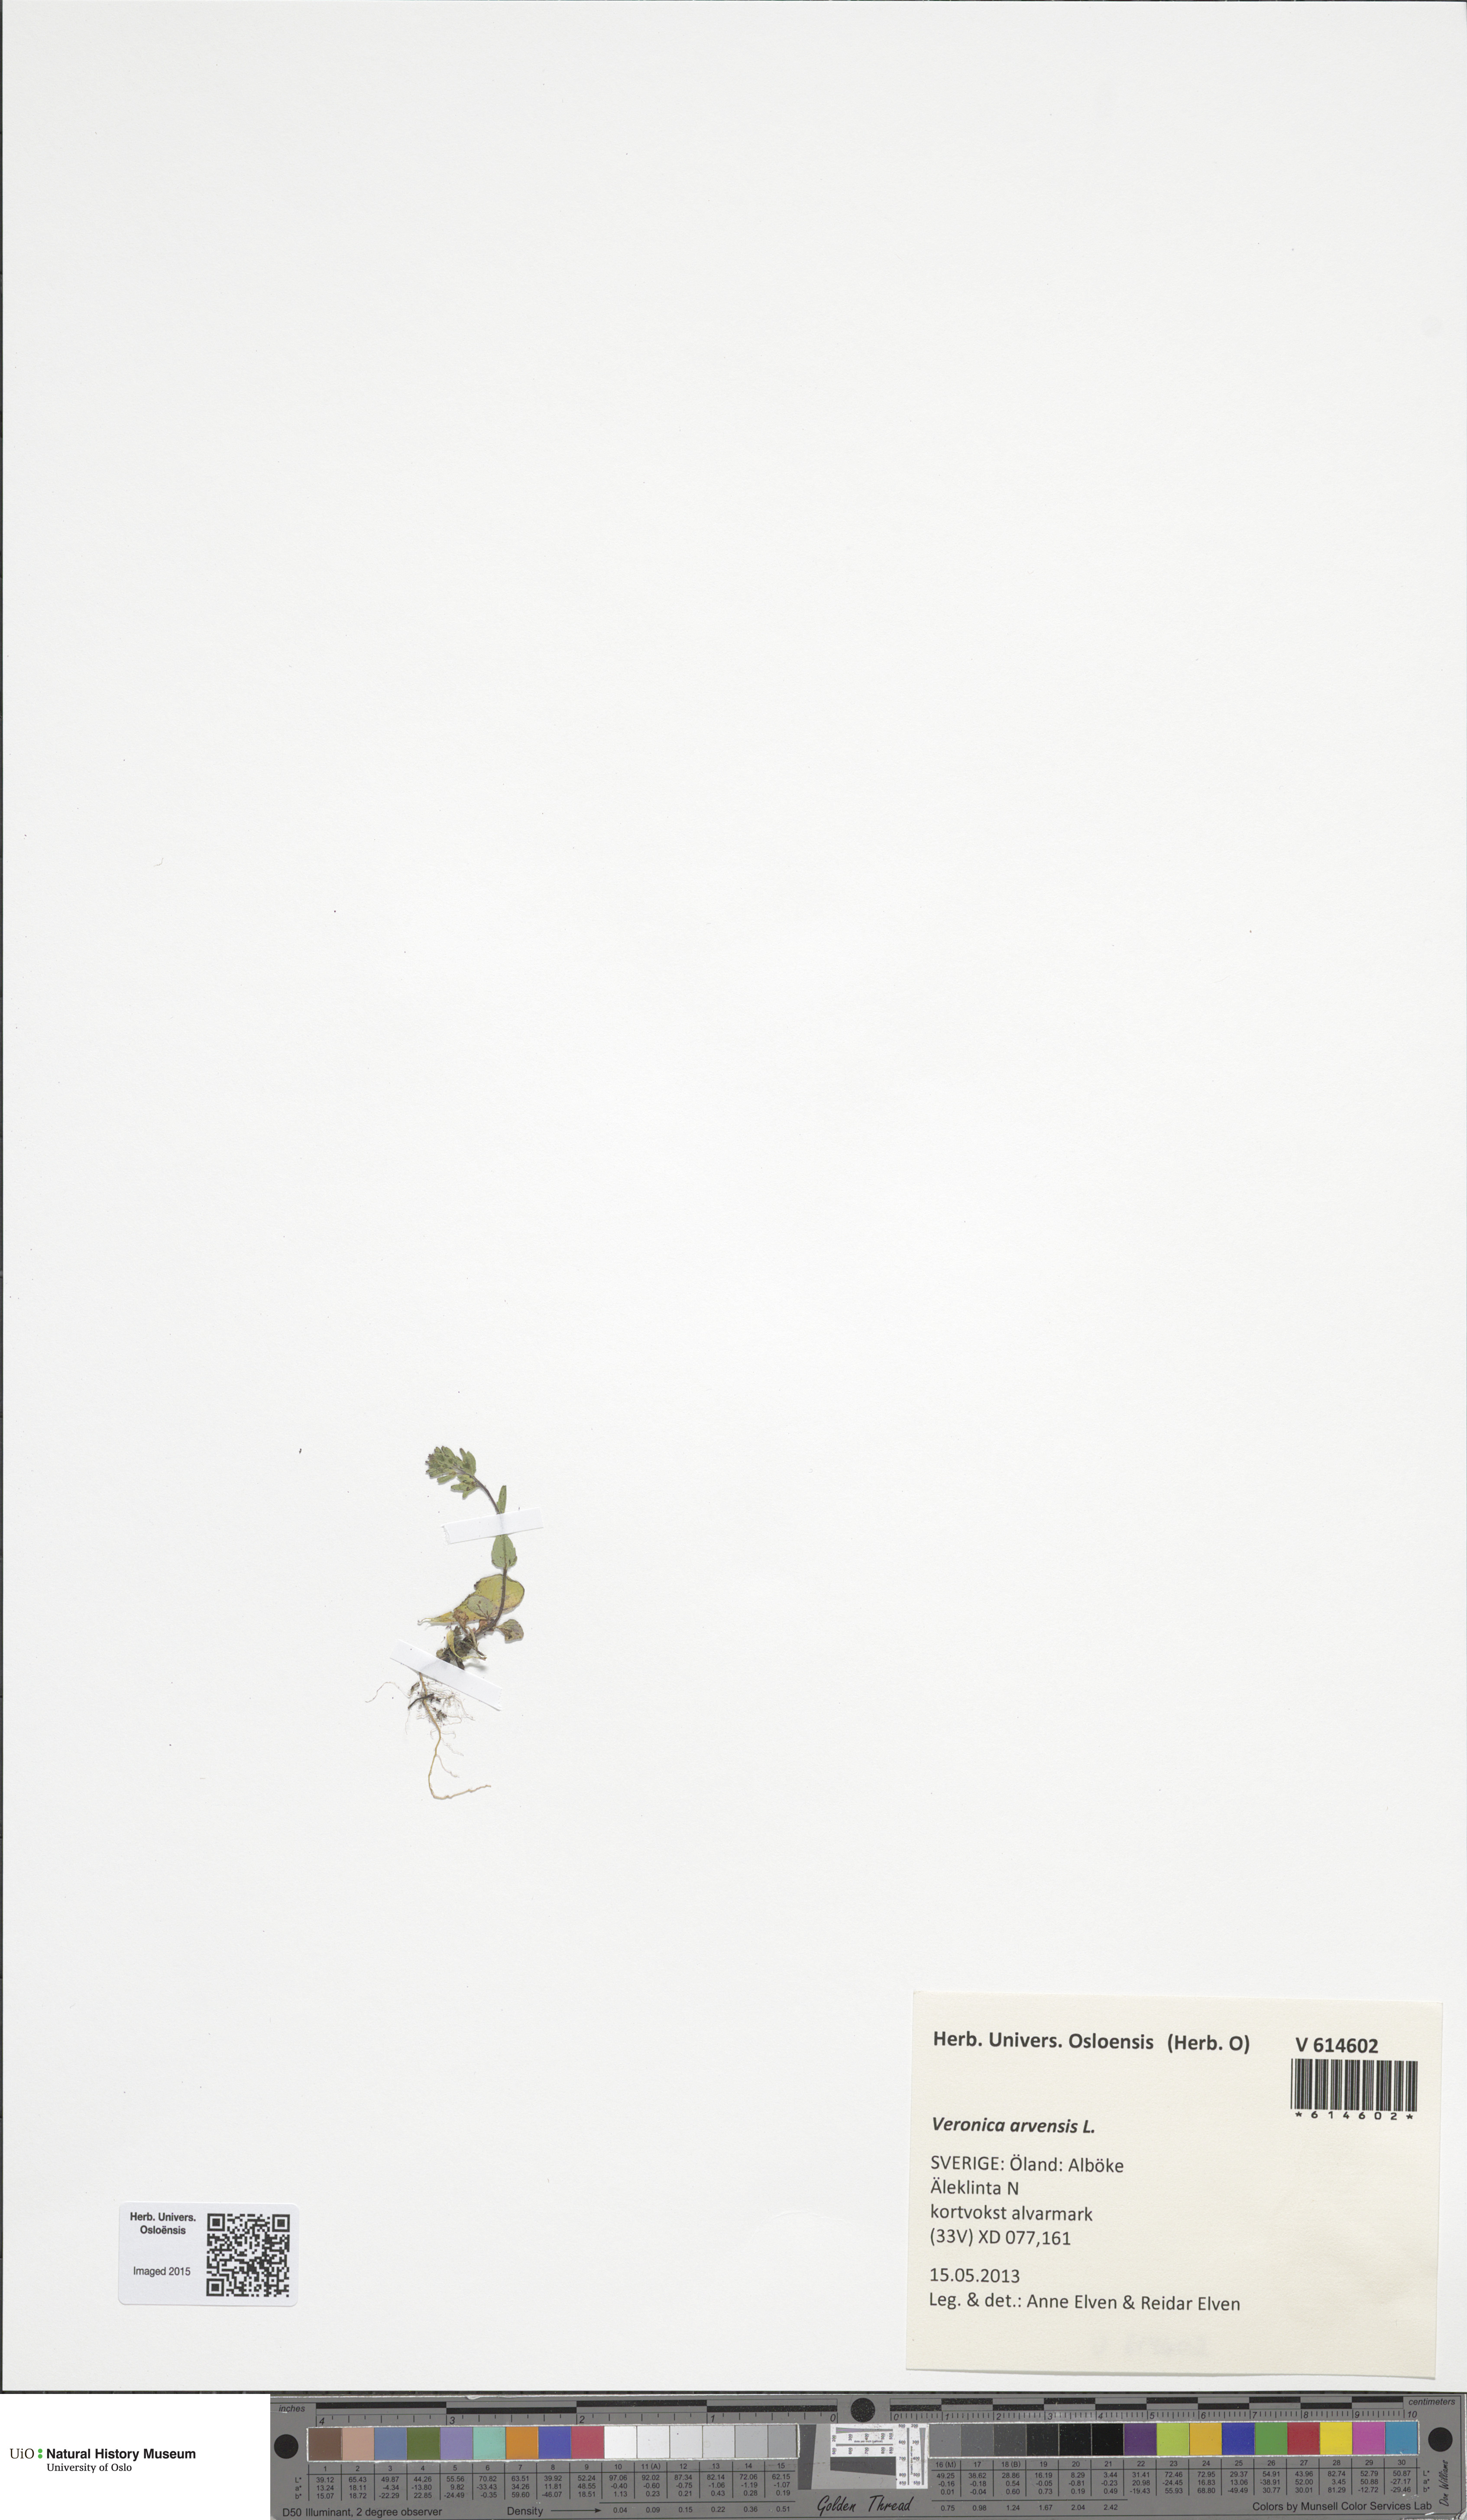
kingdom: Plantae
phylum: Tracheophyta
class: Magnoliopsida
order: Lamiales
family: Plantaginaceae
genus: Veronica
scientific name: Veronica arvensis
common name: Corn speedwell
